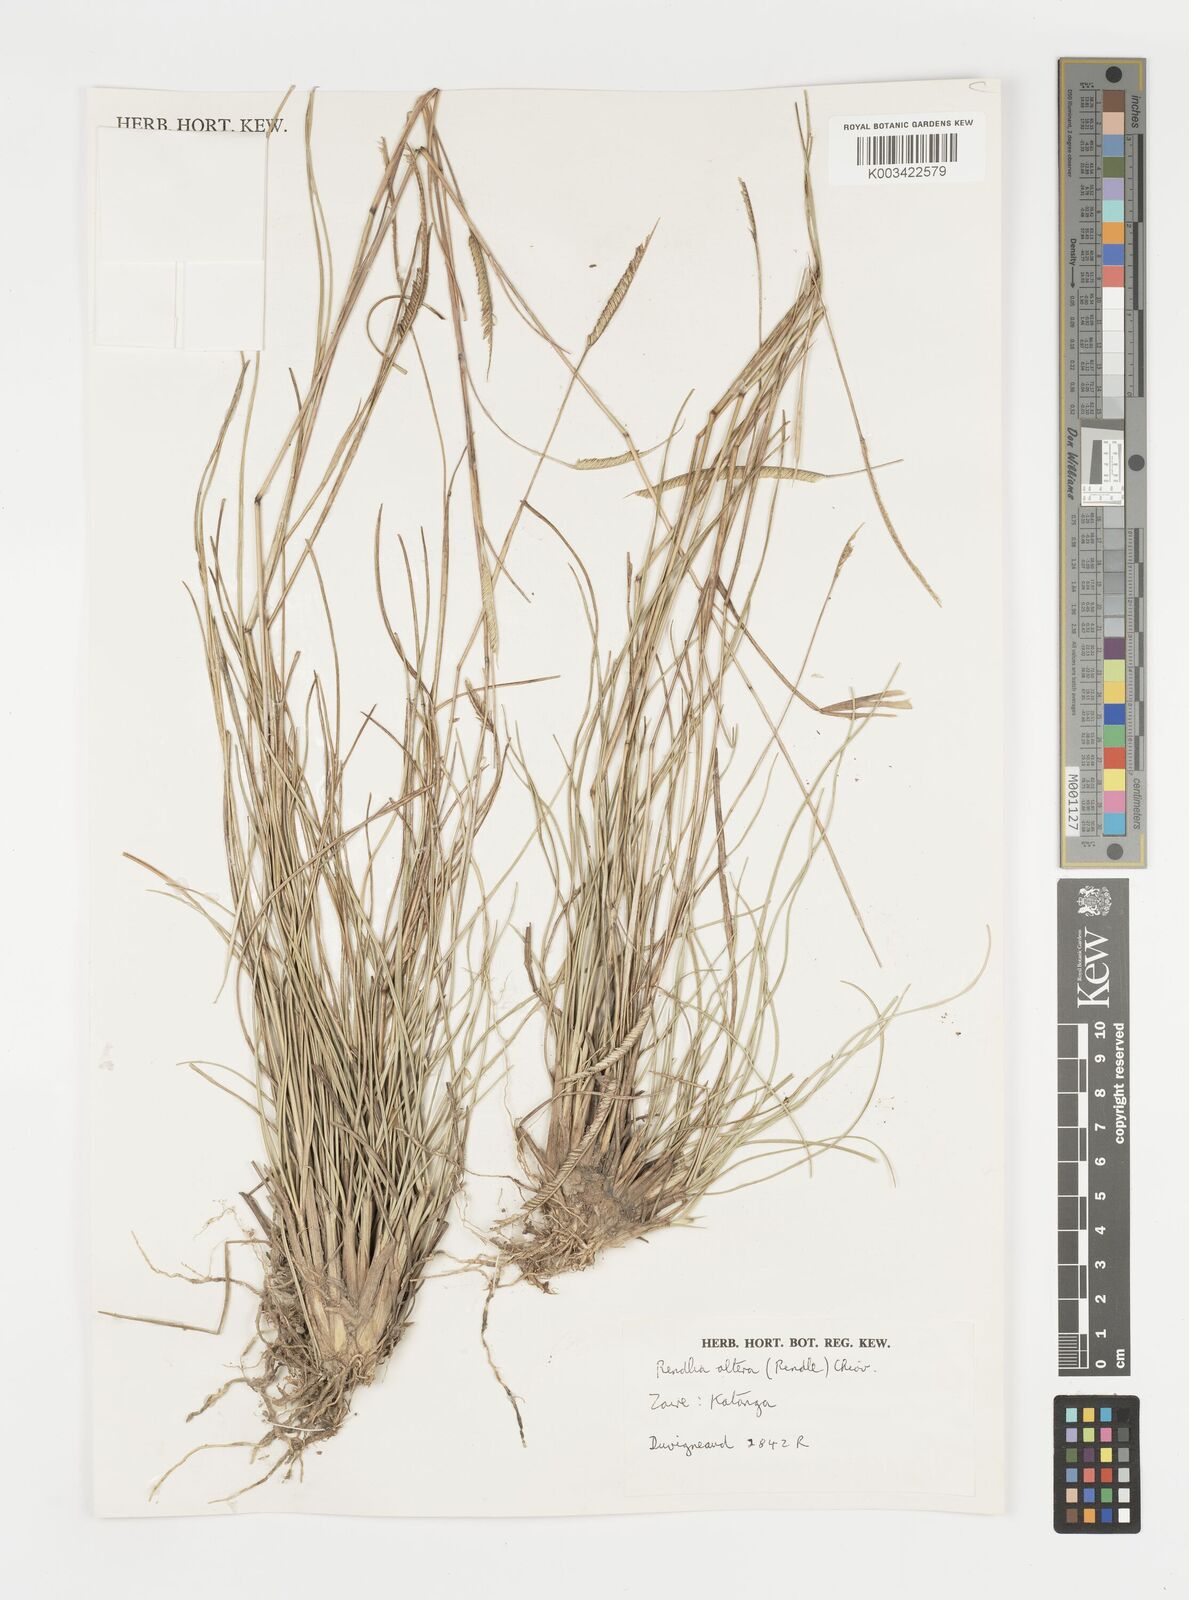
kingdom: Plantae
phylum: Tracheophyta
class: Liliopsida
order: Poales
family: Poaceae
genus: Microchloa
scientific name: Microchloa altera
